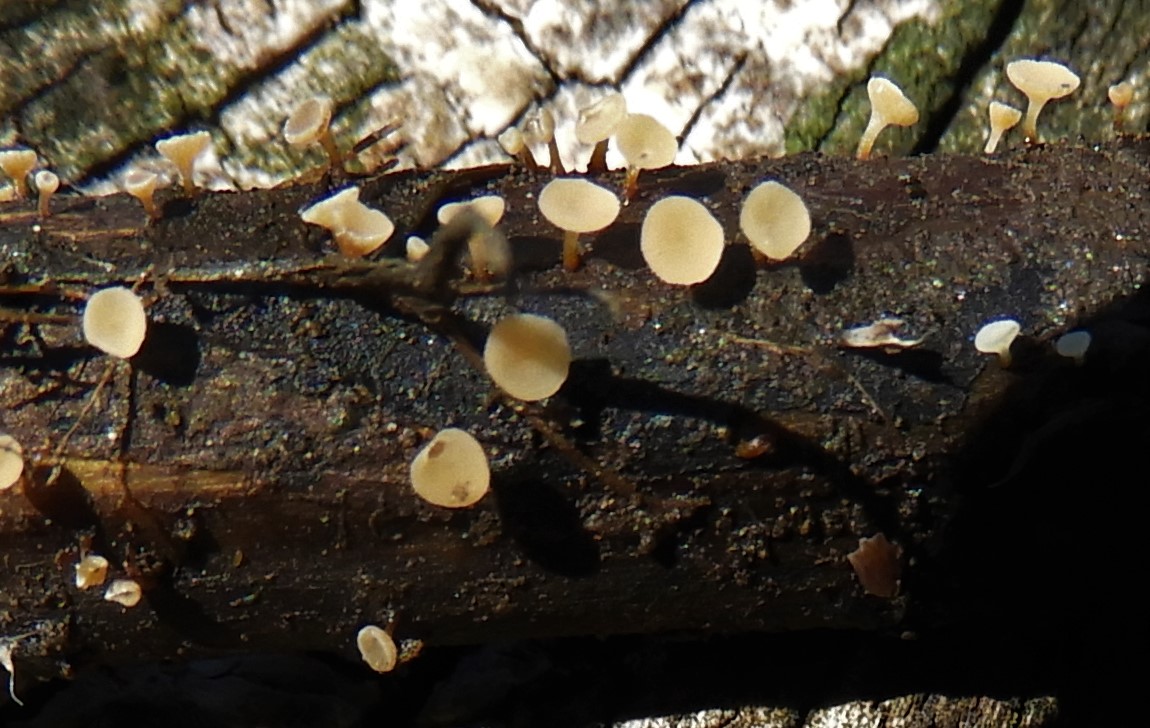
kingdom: Fungi
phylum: Ascomycota
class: Leotiomycetes
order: Helotiales
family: Helotiaceae
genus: Cyathicula
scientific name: Cyathicula
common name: stilkskive
